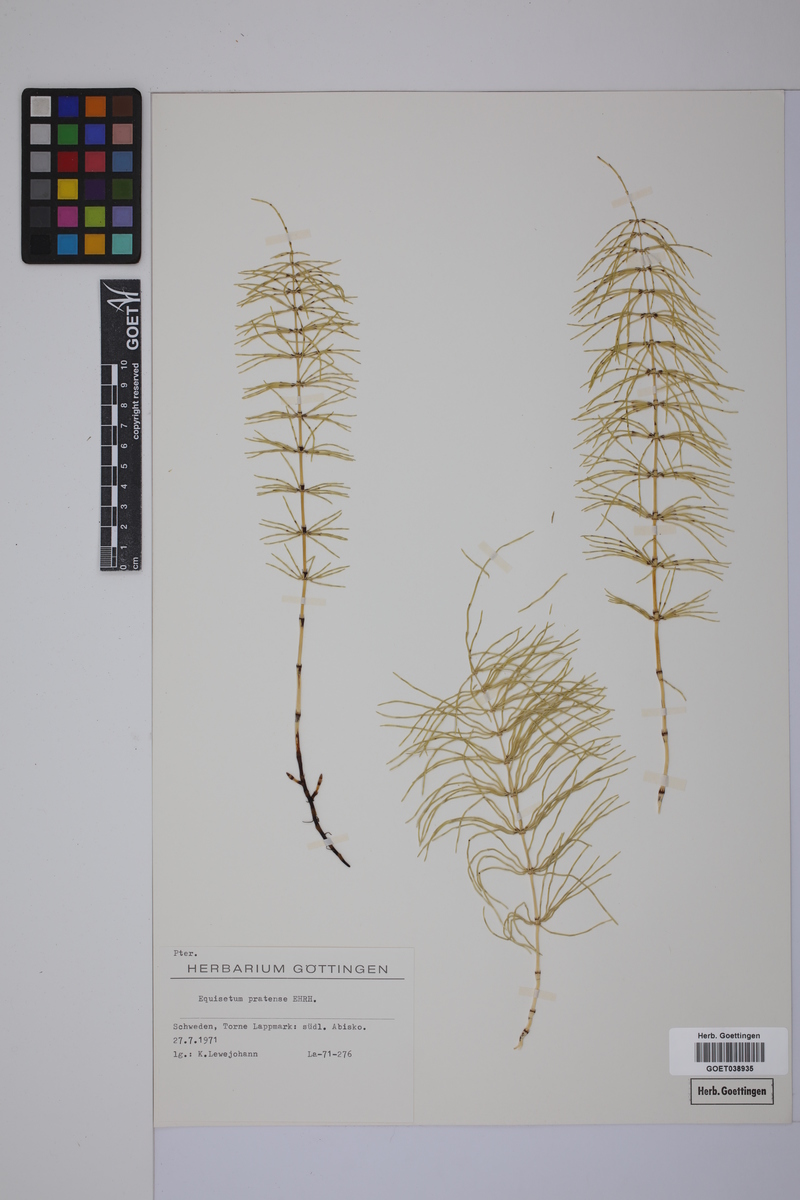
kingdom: Plantae
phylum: Tracheophyta
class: Polypodiopsida
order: Equisetales
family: Equisetaceae
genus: Equisetum
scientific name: Equisetum pratense
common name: Meadow horsetail
